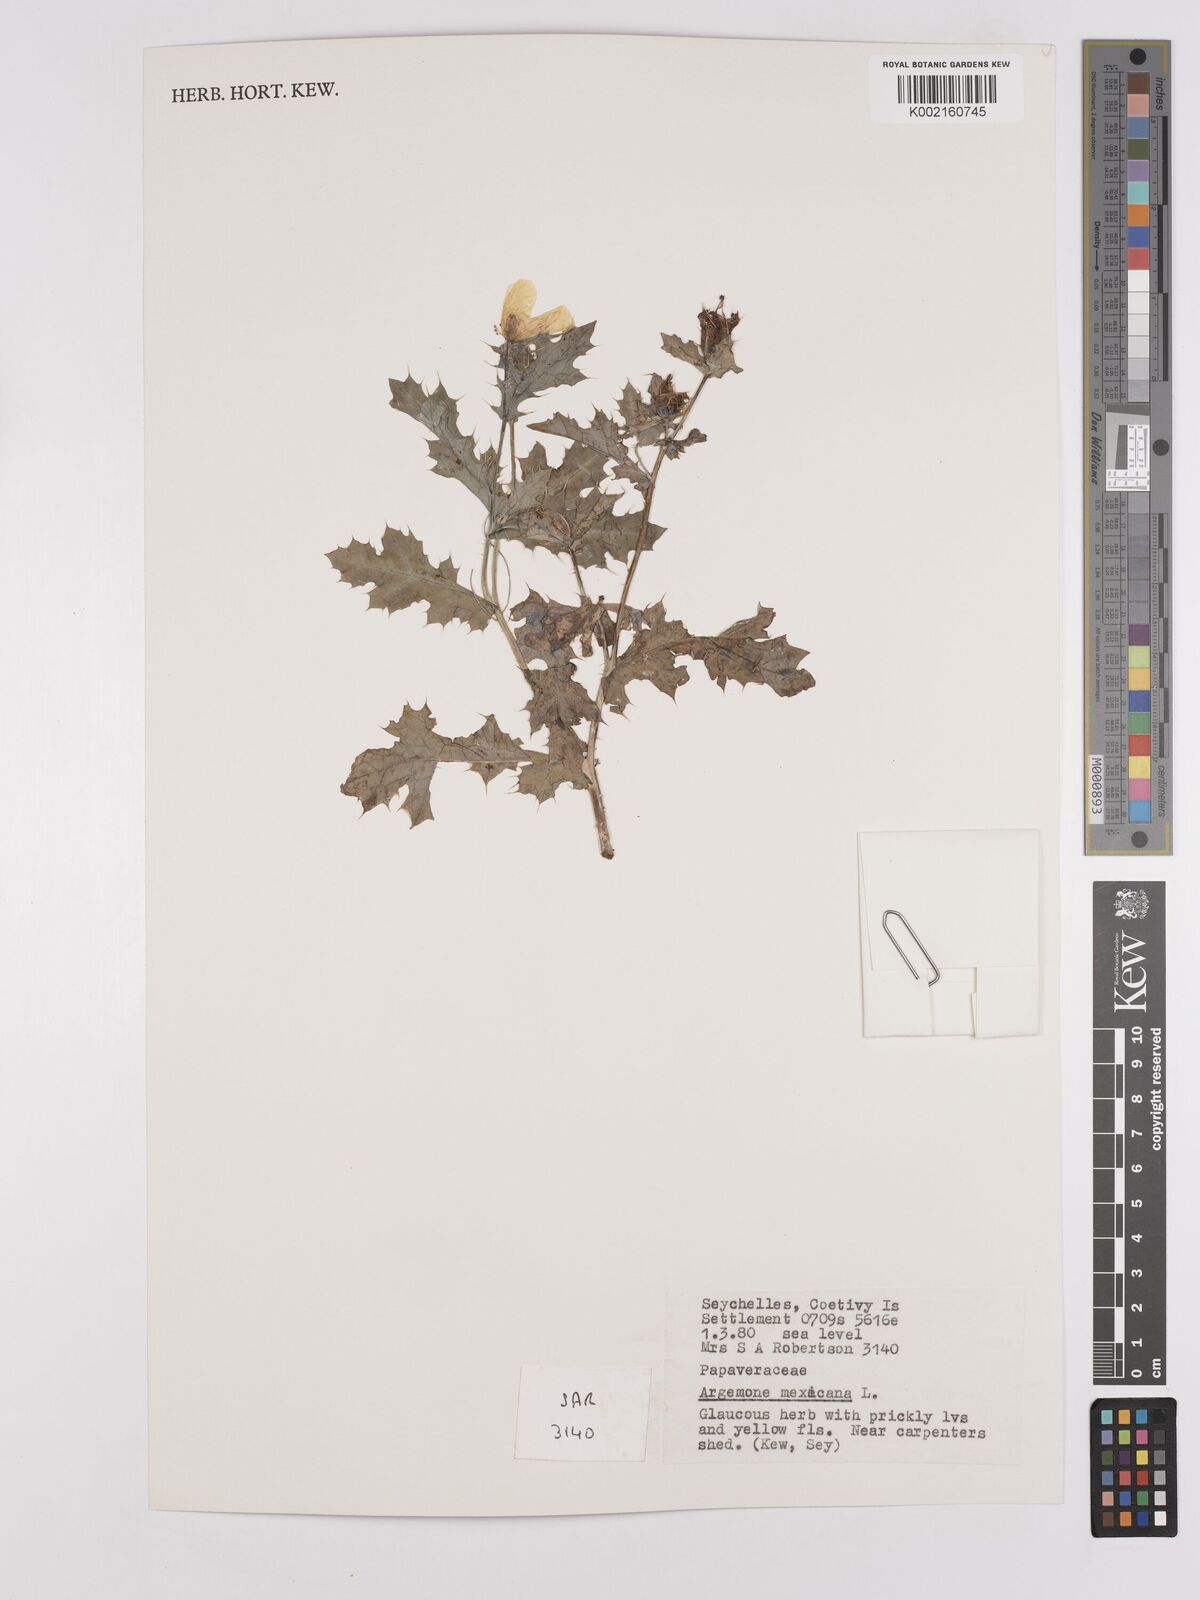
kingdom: Plantae
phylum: Tracheophyta
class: Magnoliopsida
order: Ranunculales
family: Papaveraceae
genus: Argemone
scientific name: Argemone mexicana
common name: Mexican poppy
